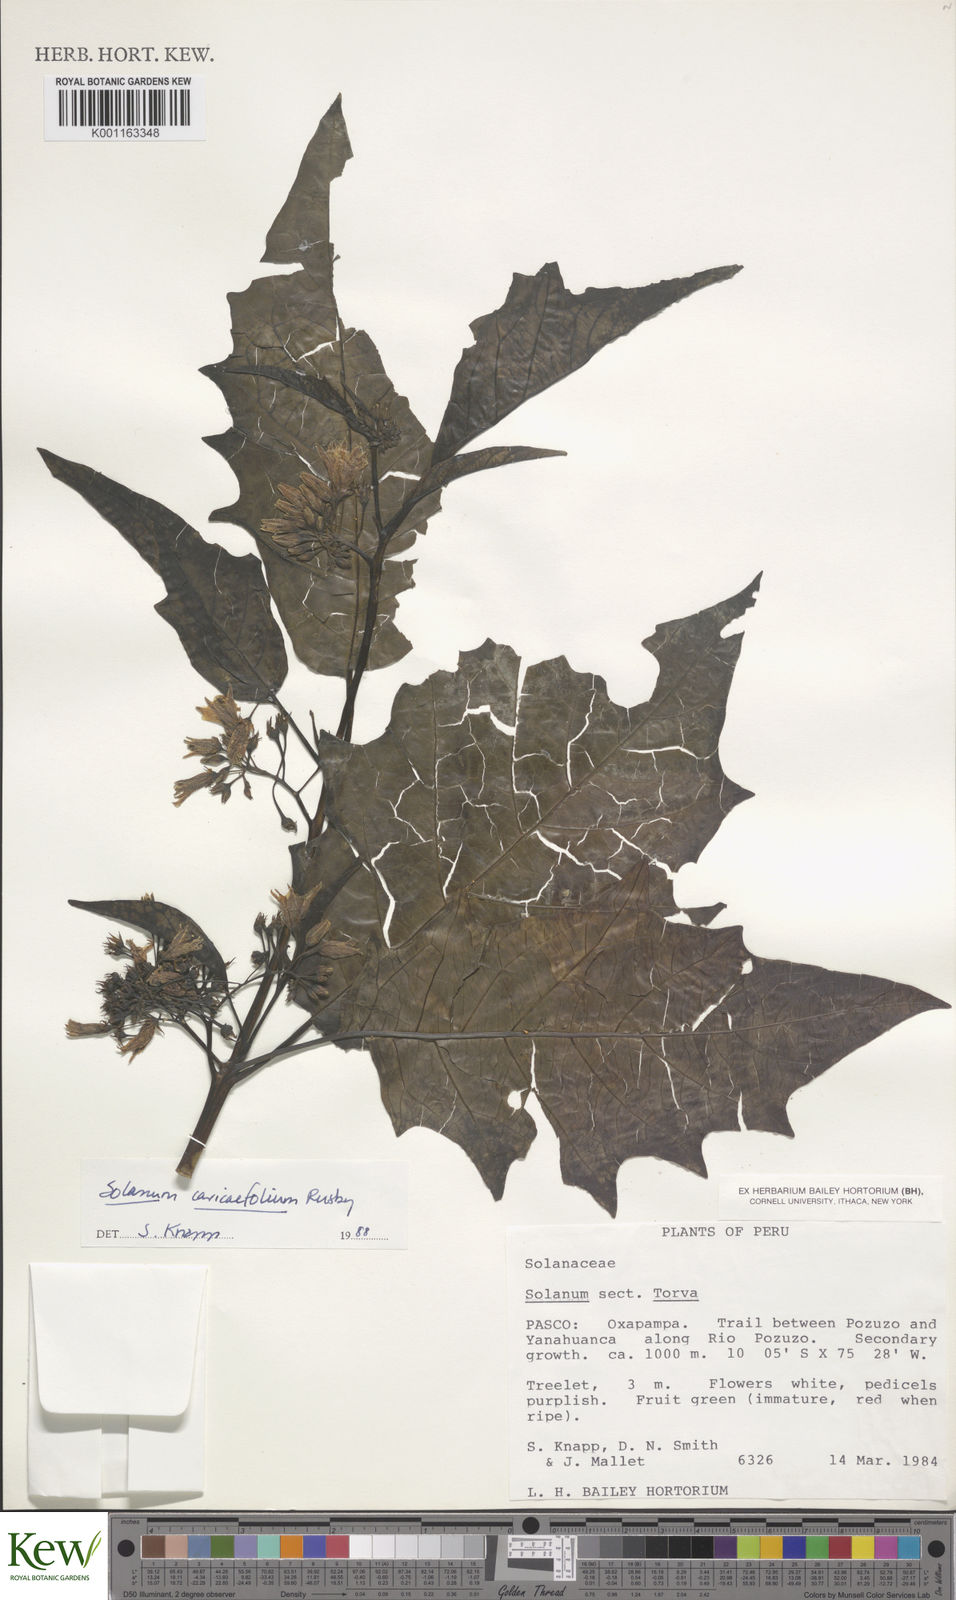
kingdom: Plantae
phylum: Tracheophyta
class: Magnoliopsida
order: Solanales
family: Solanaceae
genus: Solanum
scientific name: Solanum caricaefolium
